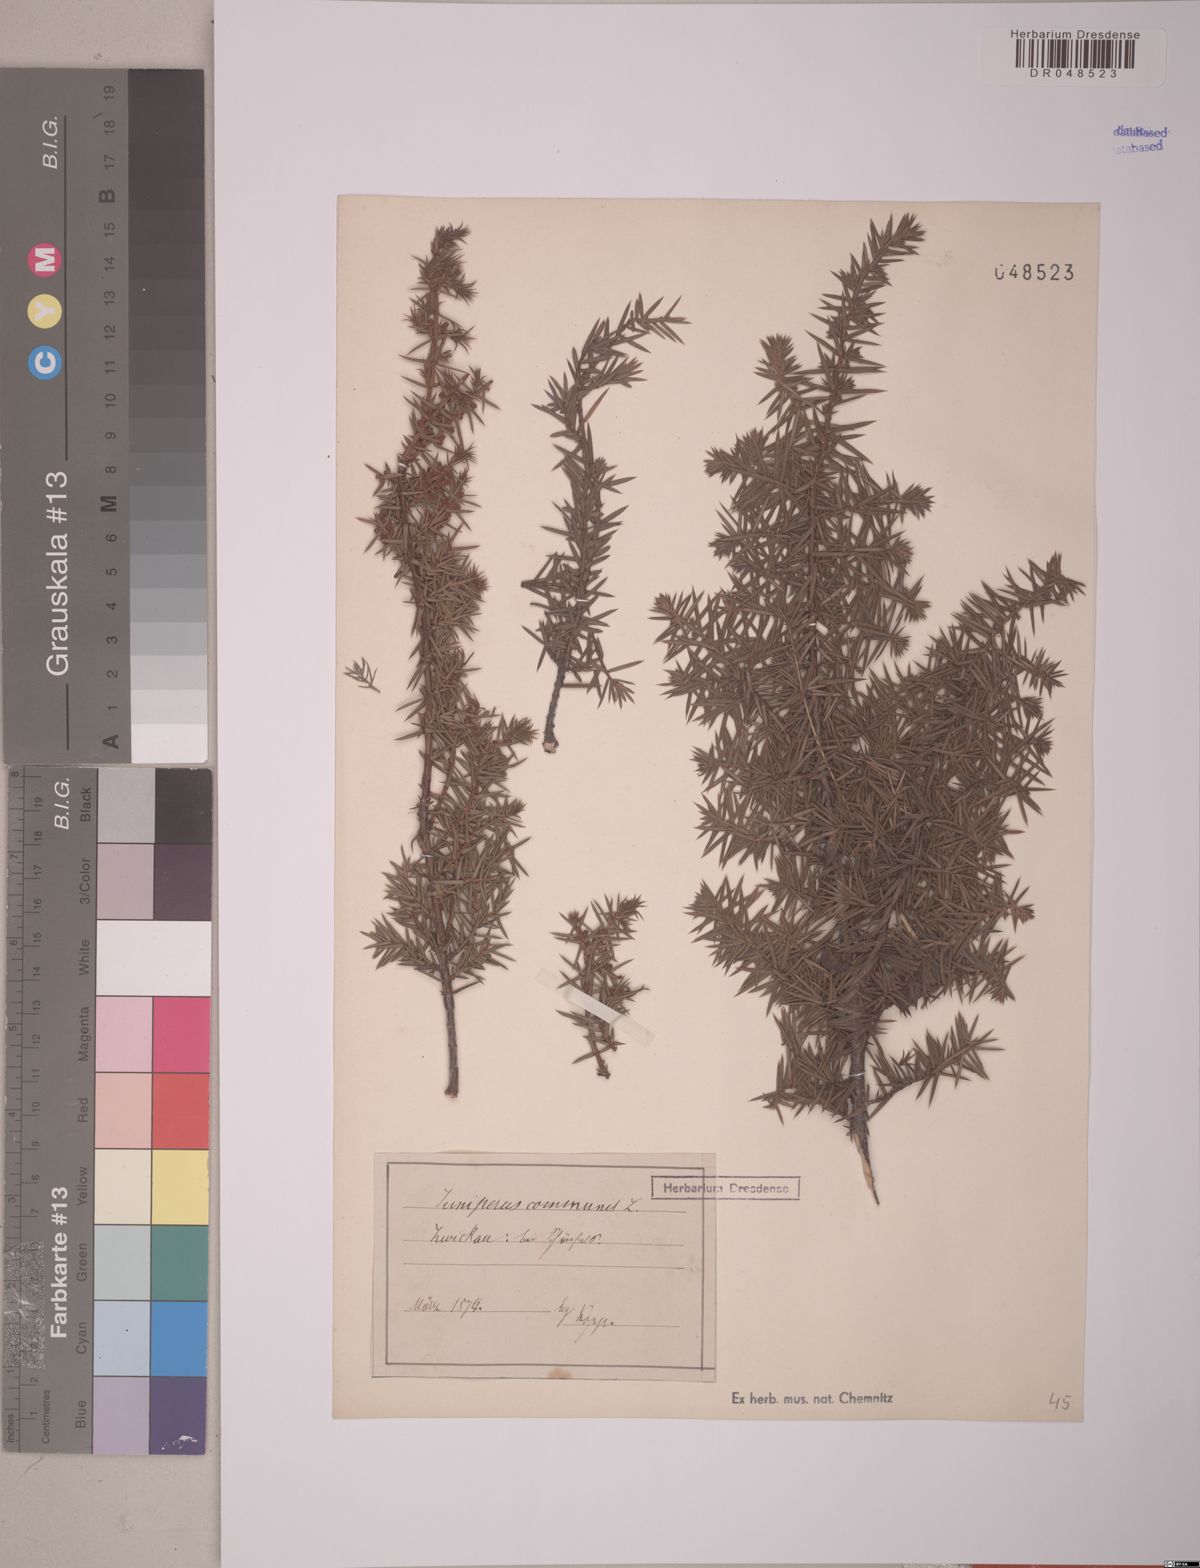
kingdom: Plantae
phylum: Tracheophyta
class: Pinopsida
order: Pinales
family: Cupressaceae
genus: Juniperus
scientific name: Juniperus communis
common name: Common juniper
